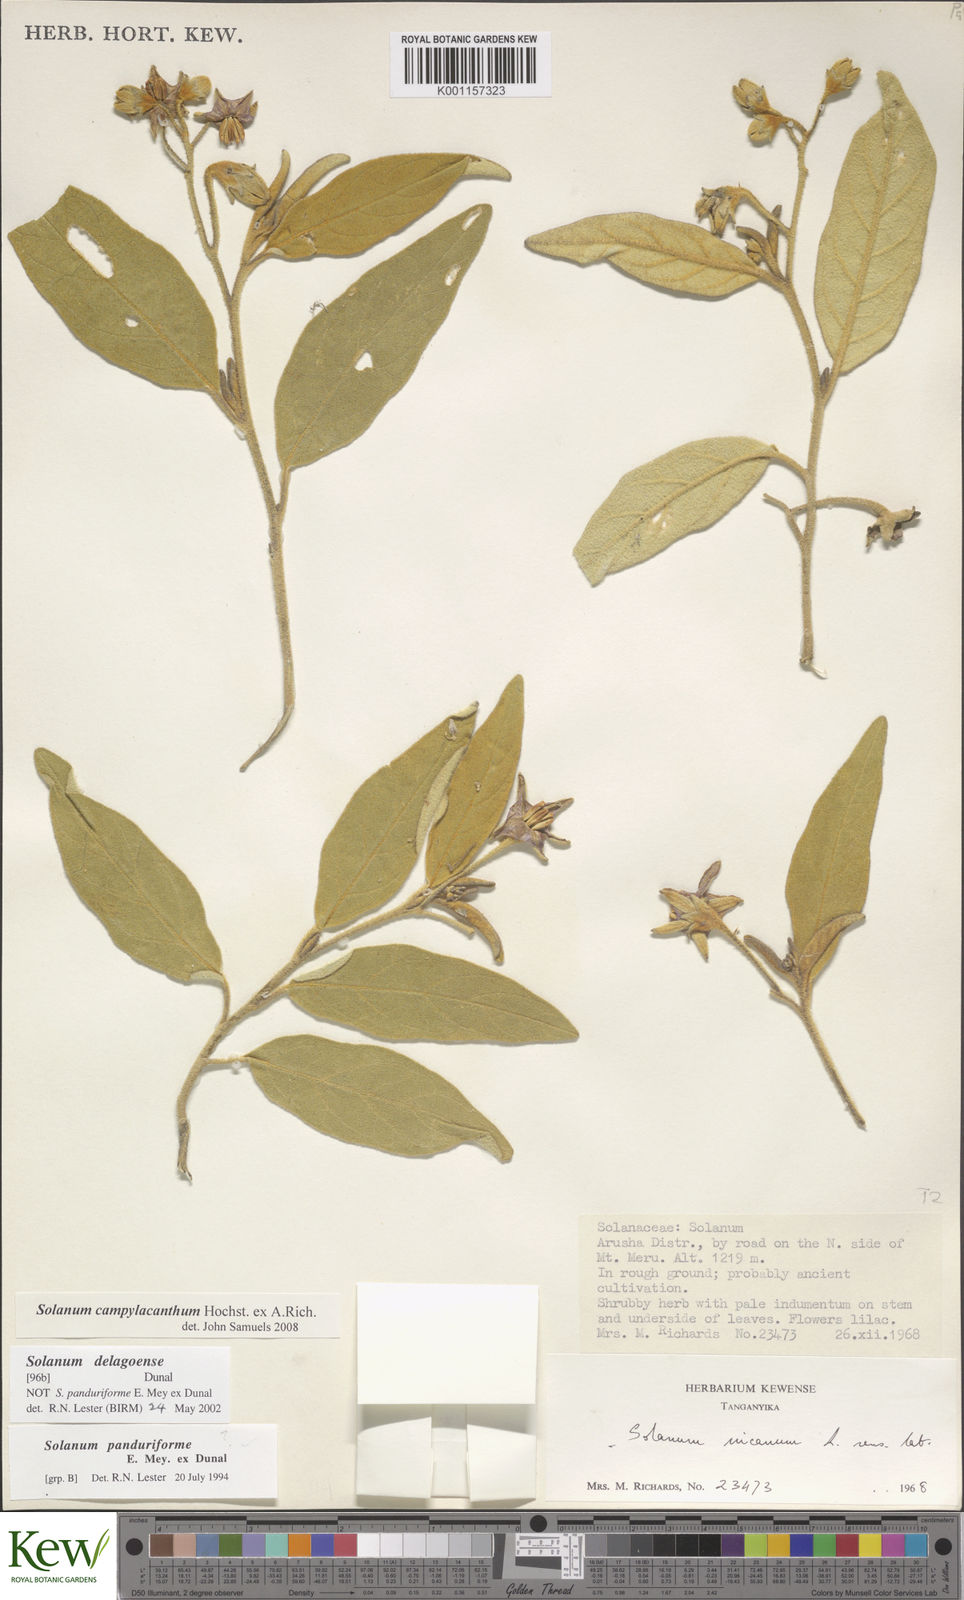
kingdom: Plantae
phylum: Tracheophyta
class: Magnoliopsida
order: Solanales
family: Solanaceae
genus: Solanum
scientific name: Solanum campylacanthum
